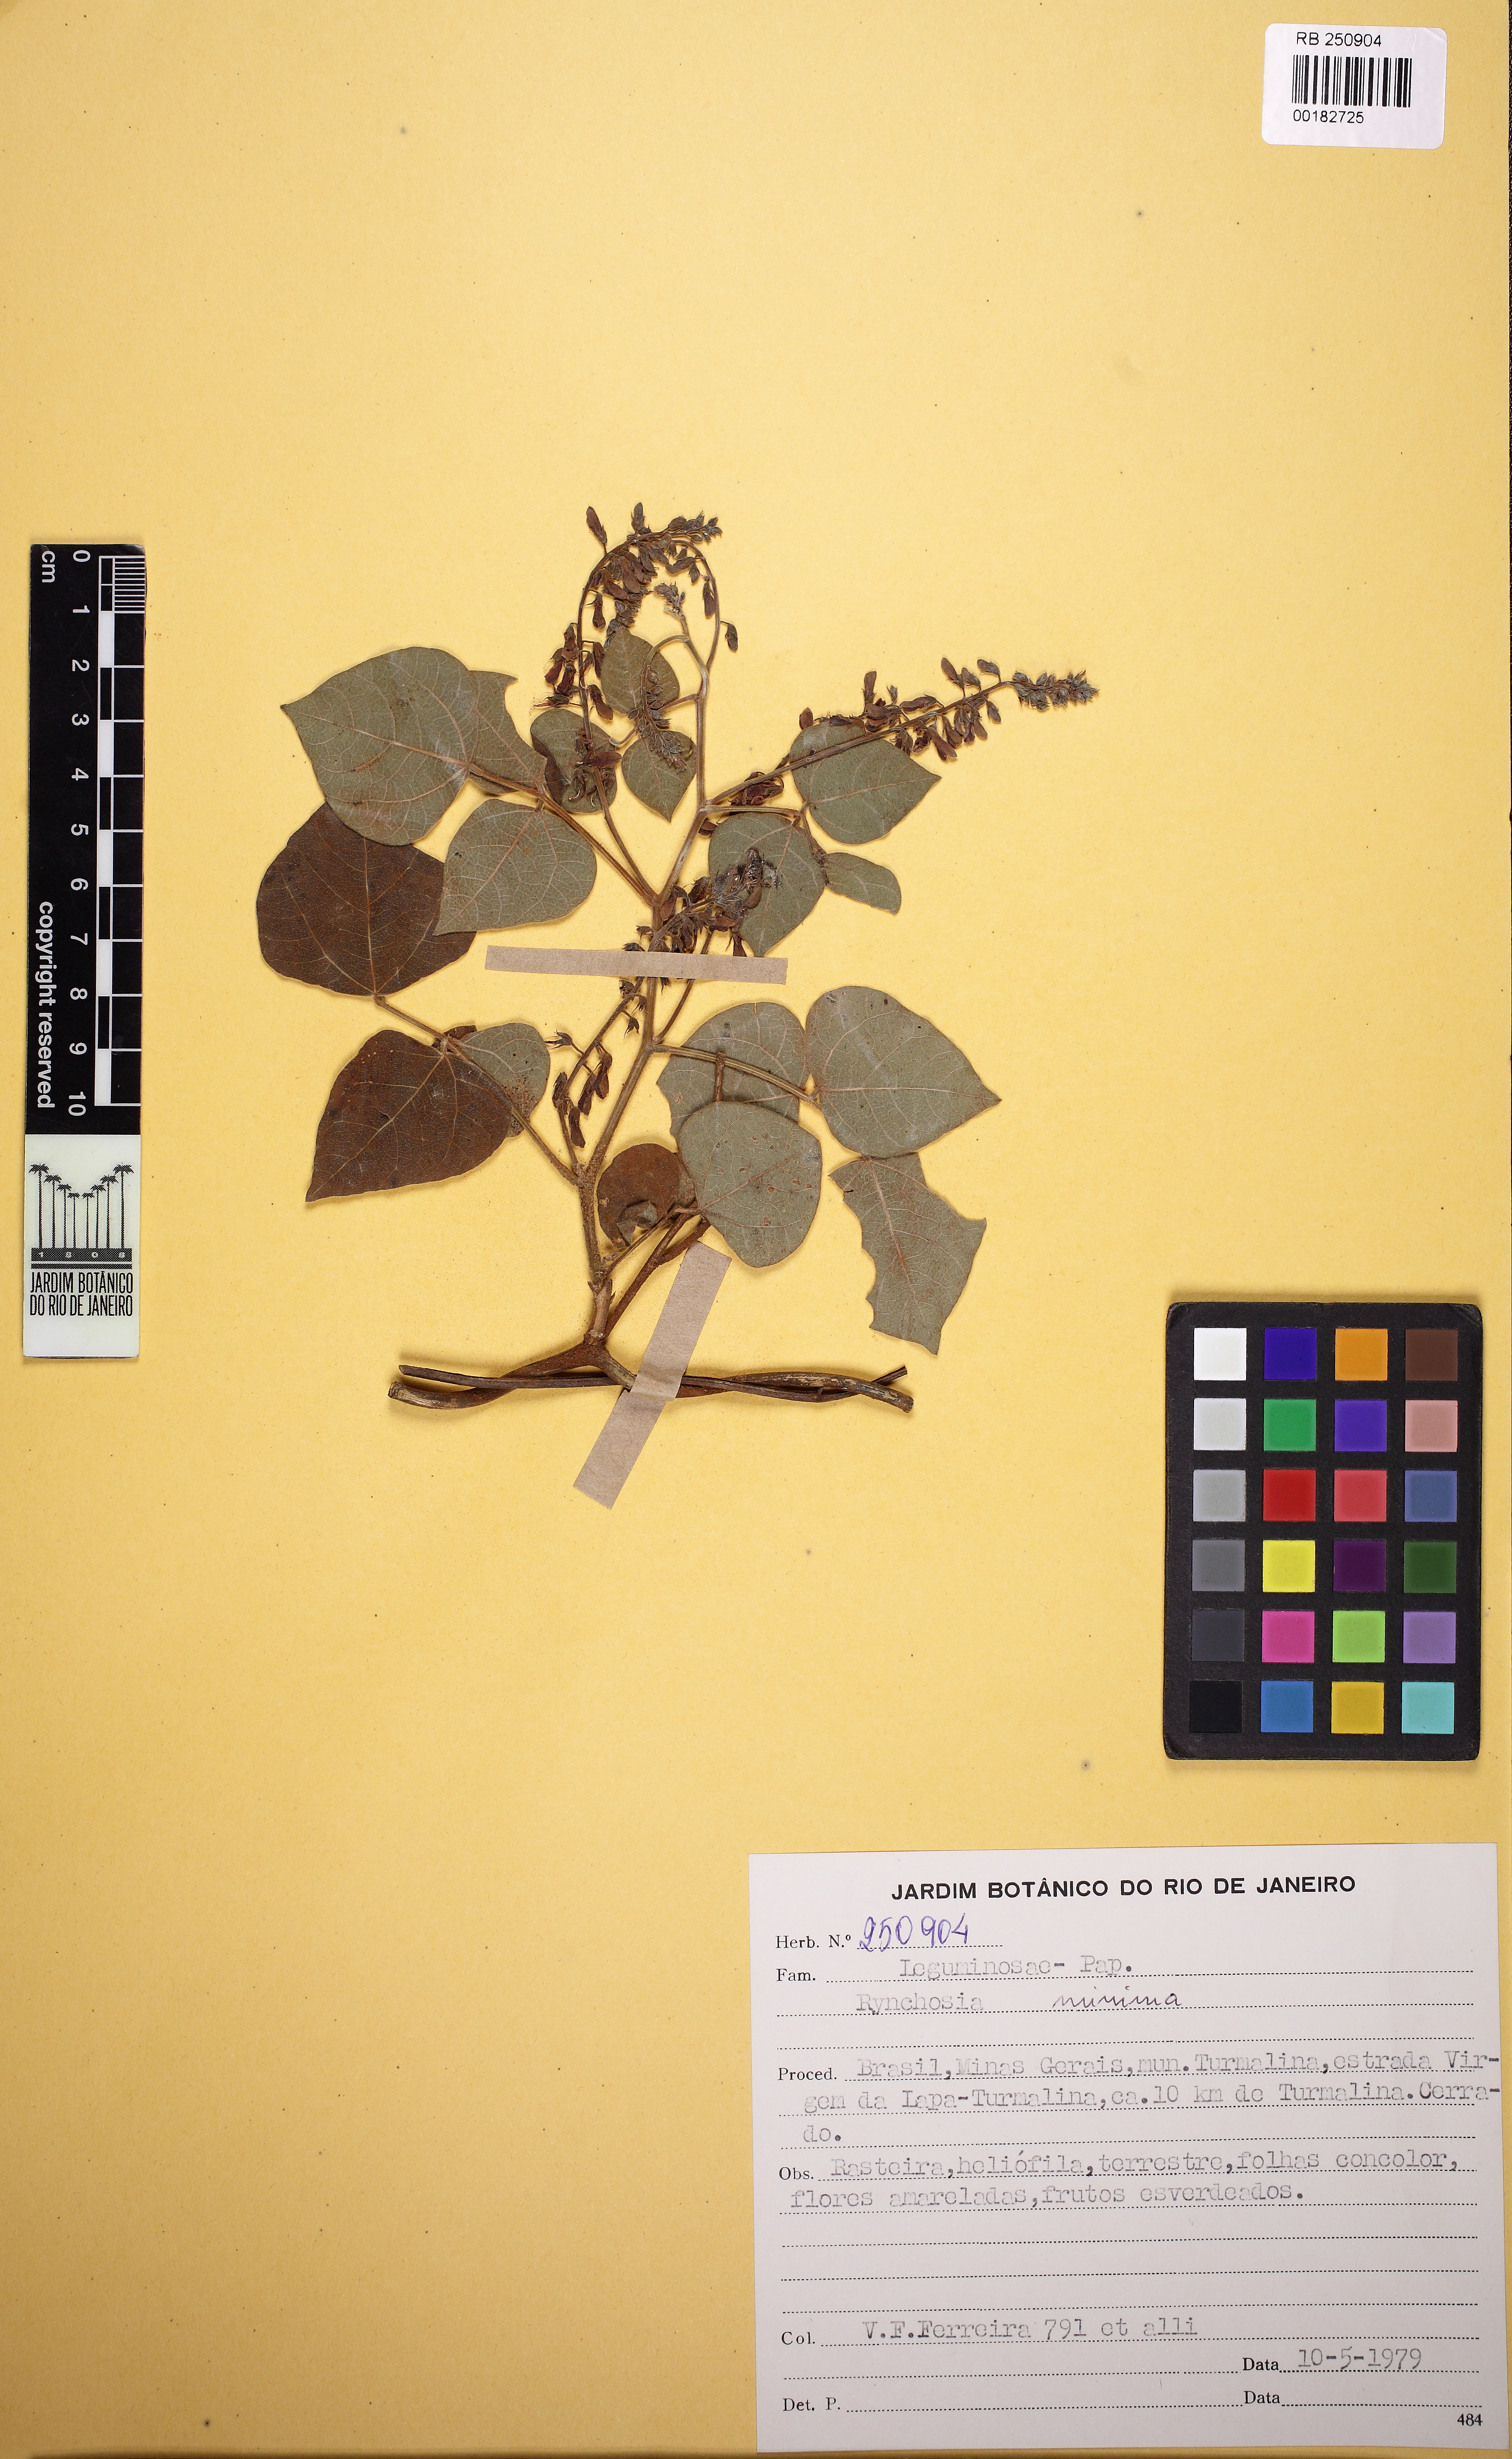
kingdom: Plantae
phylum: Tracheophyta
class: Magnoliopsida
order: Fabales
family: Fabaceae
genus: Rhynchosia
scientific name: Rhynchosia melanocarpa
